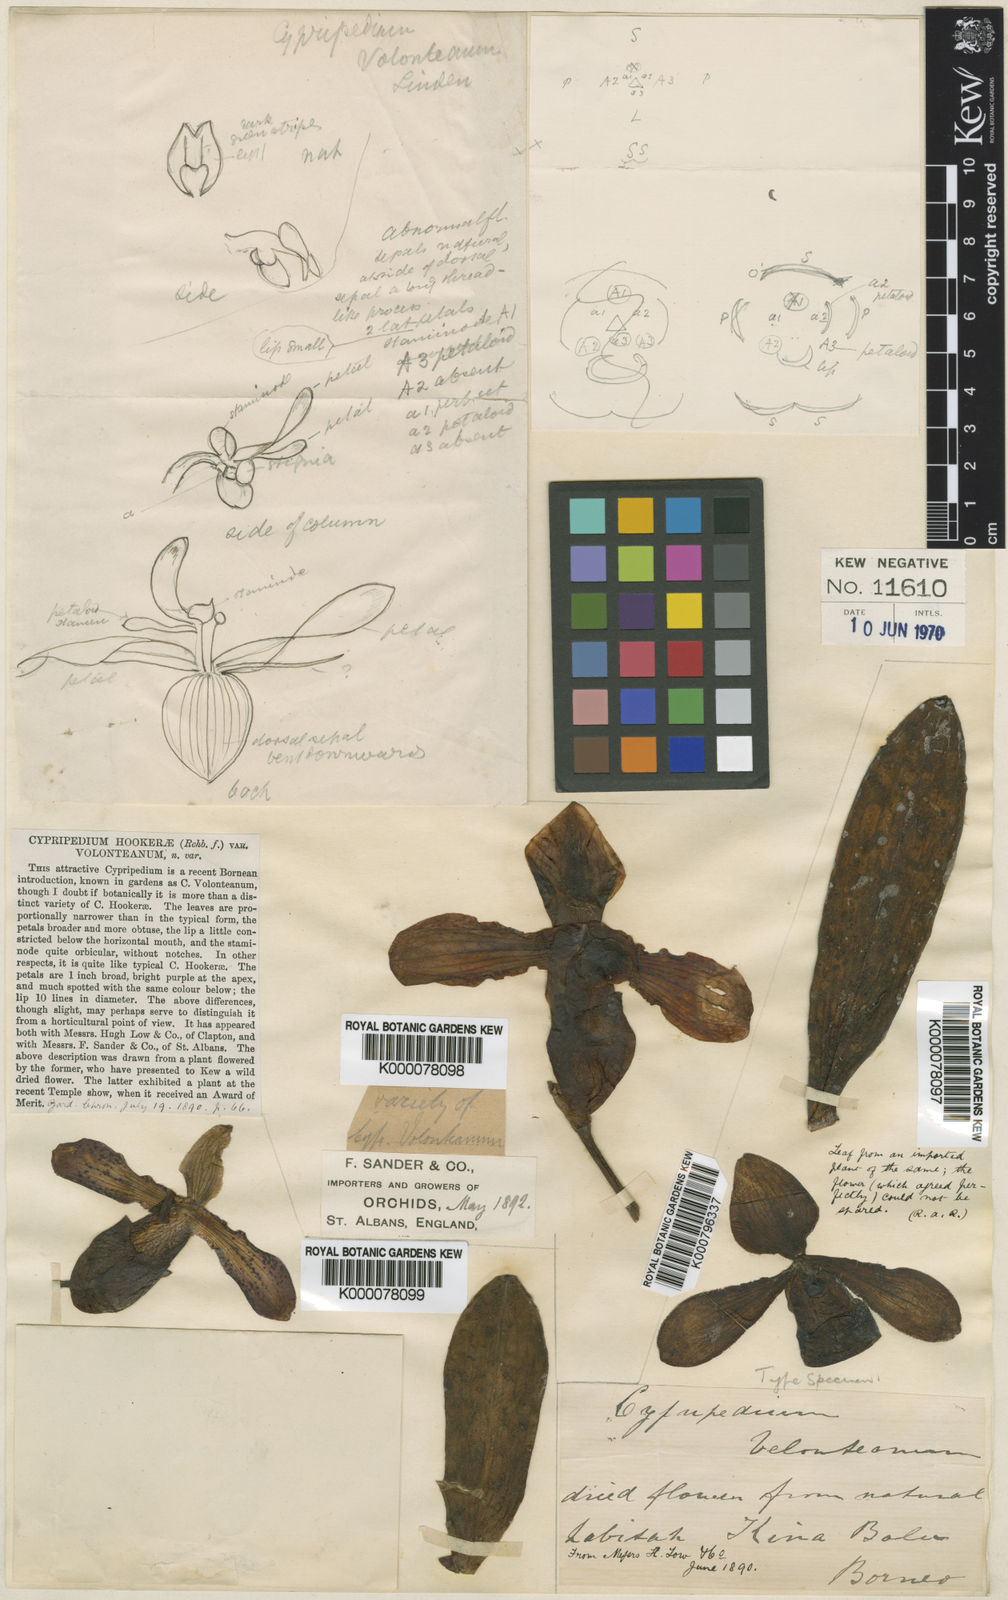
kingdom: Plantae
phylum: Tracheophyta
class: Liliopsida
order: Asparagales
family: Orchidaceae
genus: Paphiopedilum
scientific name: Paphiopedilum hookerae
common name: Hooker's paphiopedilum
